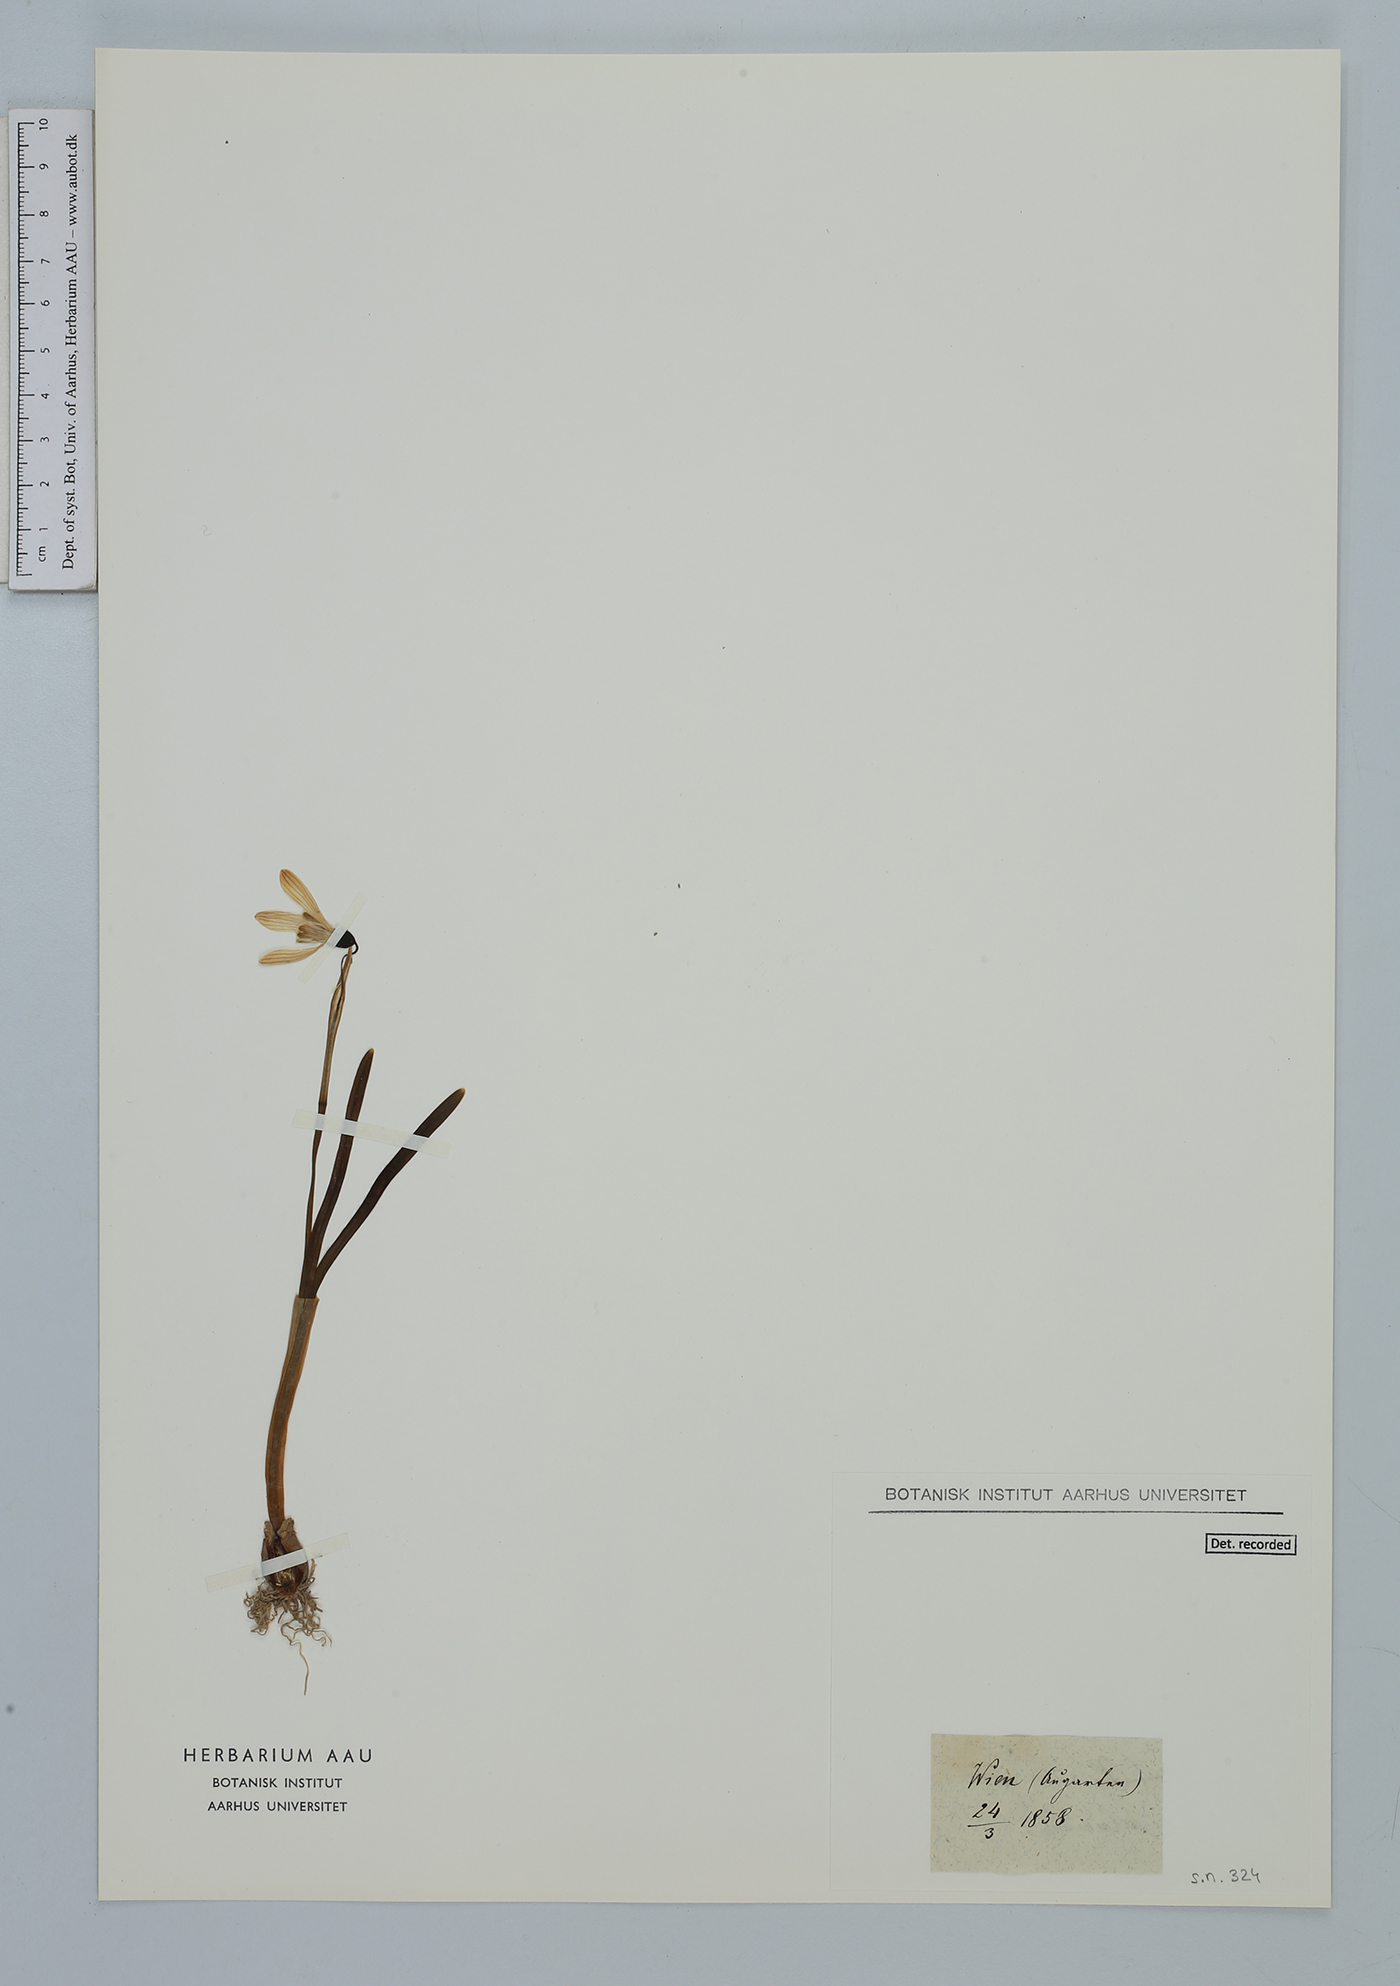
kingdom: Plantae
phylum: Tracheophyta
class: Liliopsida
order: Asparagales
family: Amaryllidaceae
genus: Galanthus
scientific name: Galanthus nivalis
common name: Snowdrop
